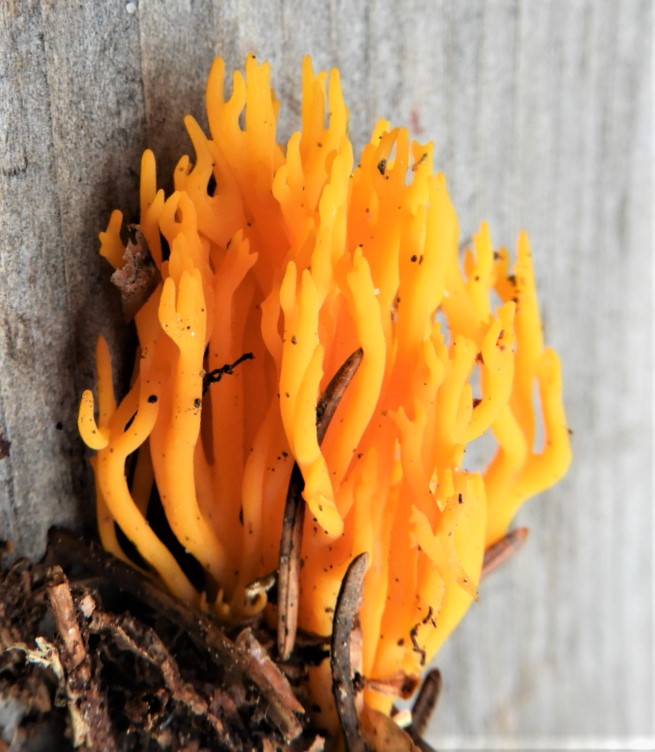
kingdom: Fungi
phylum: Basidiomycota
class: Dacrymycetes
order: Dacrymycetales
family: Dacrymycetaceae
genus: Calocera
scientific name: Calocera viscosa
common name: almindelig guldgaffel
